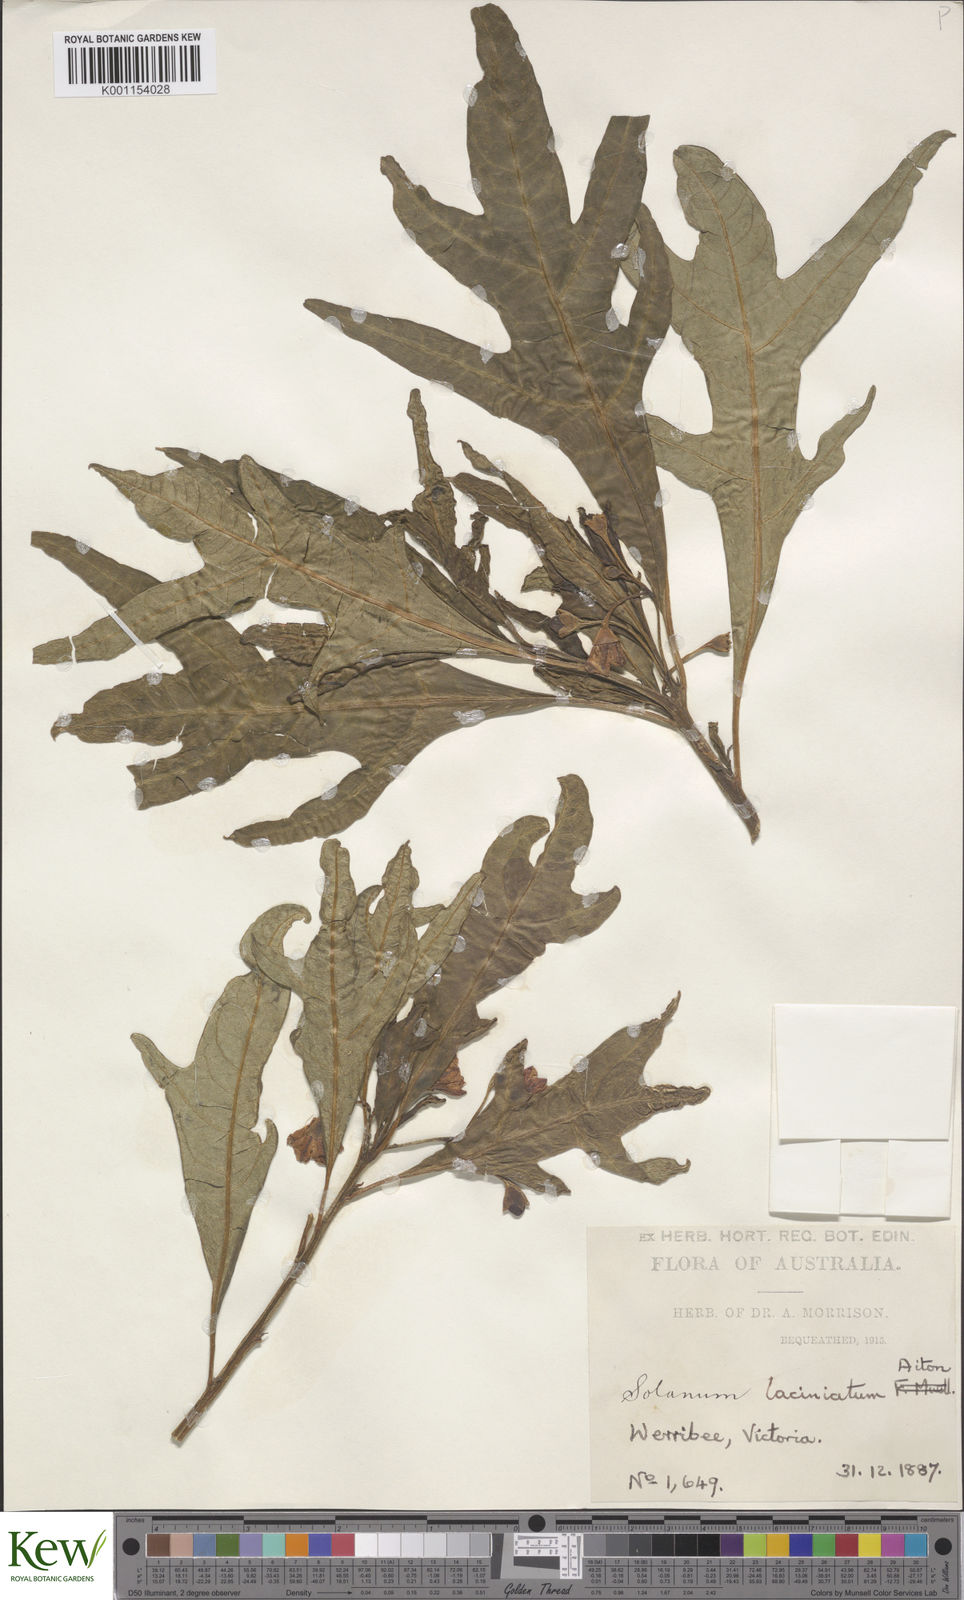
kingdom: Plantae
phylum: Tracheophyta
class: Magnoliopsida
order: Solanales
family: Solanaceae
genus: Solanum
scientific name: Solanum laciniatum
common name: Kangaroo-apple
